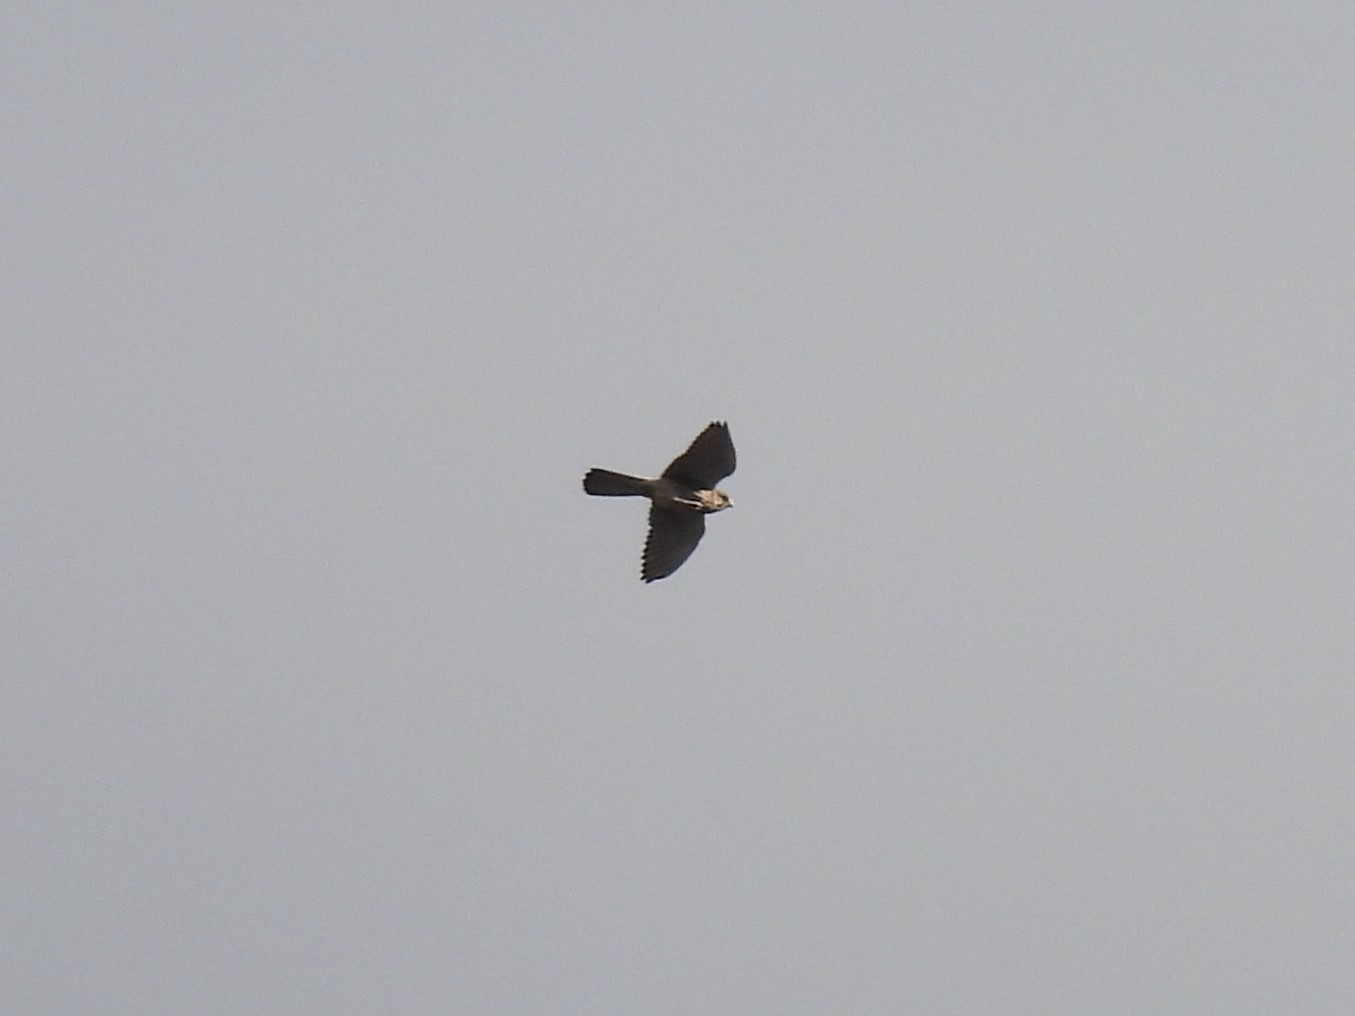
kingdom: Animalia
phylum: Chordata
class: Aves
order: Falconiformes
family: Falconidae
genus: Falco
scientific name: Falco tinnunculus
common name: Tårnfalk
